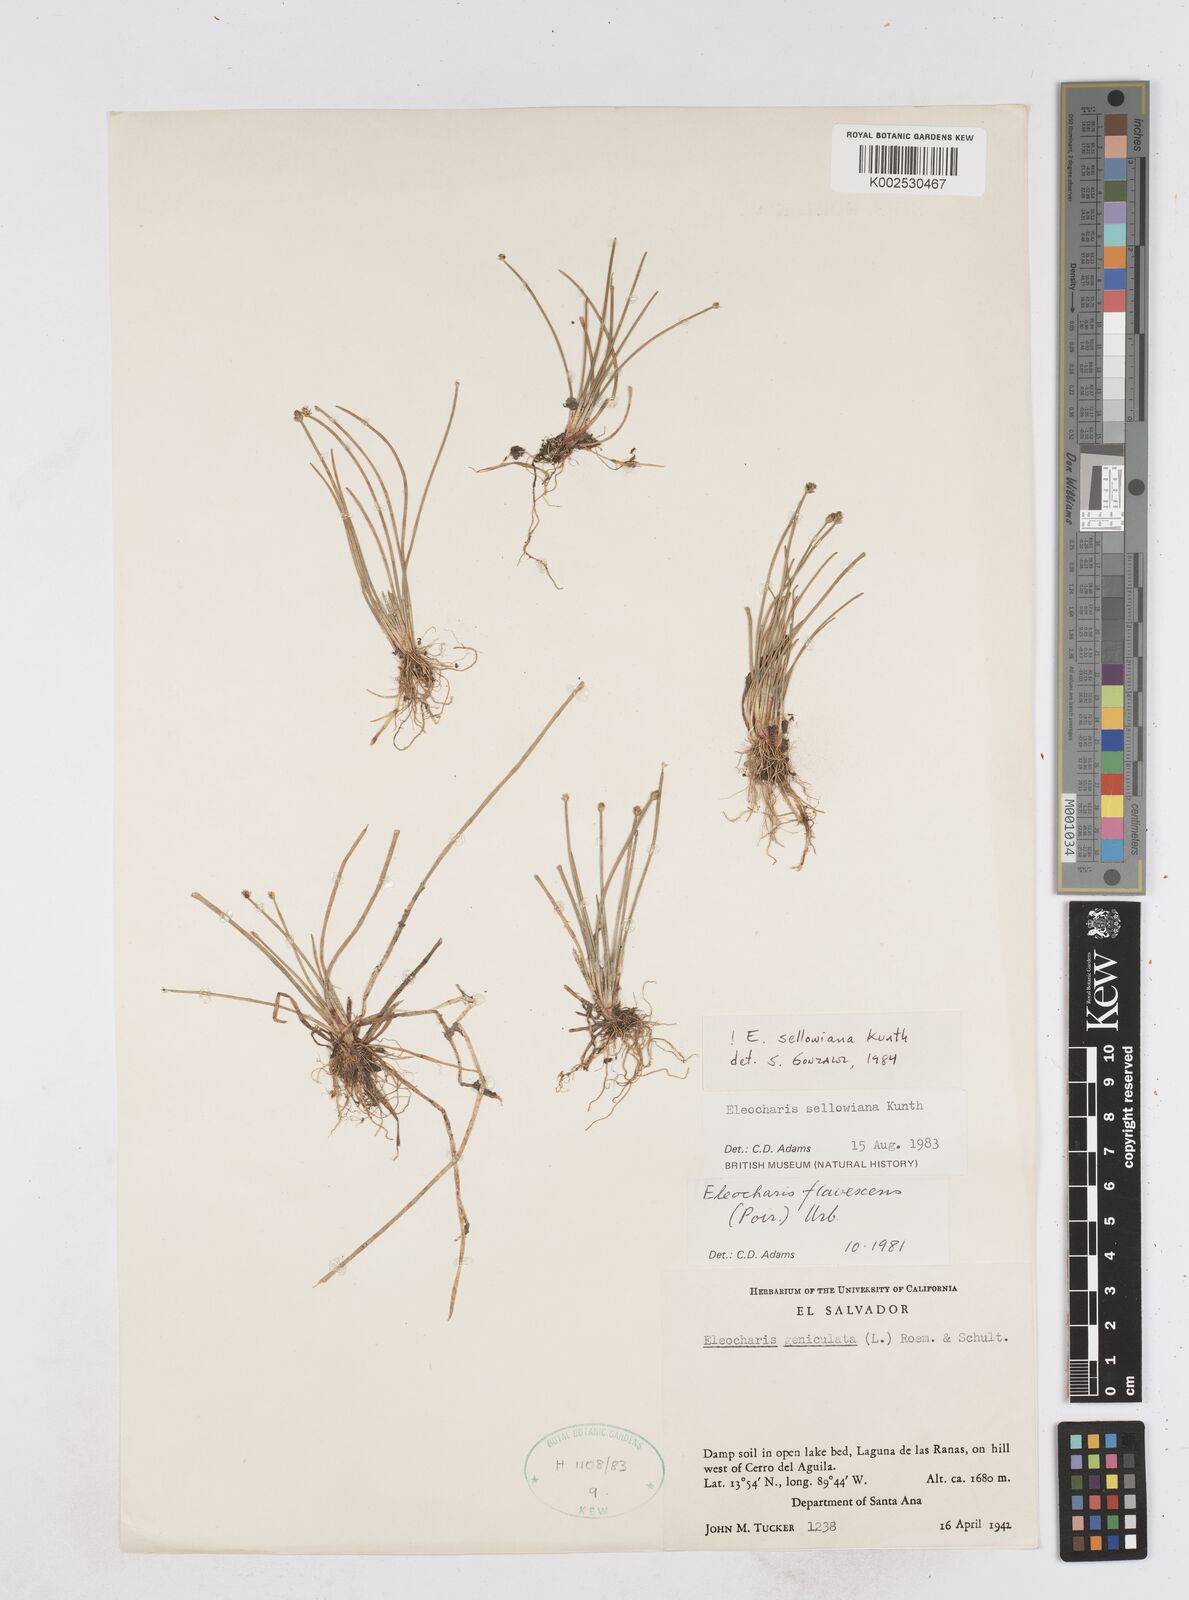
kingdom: Plantae
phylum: Tracheophyta
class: Liliopsida
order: Poales
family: Cyperaceae
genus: Eleocharis
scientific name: Eleocharis sellowiana
